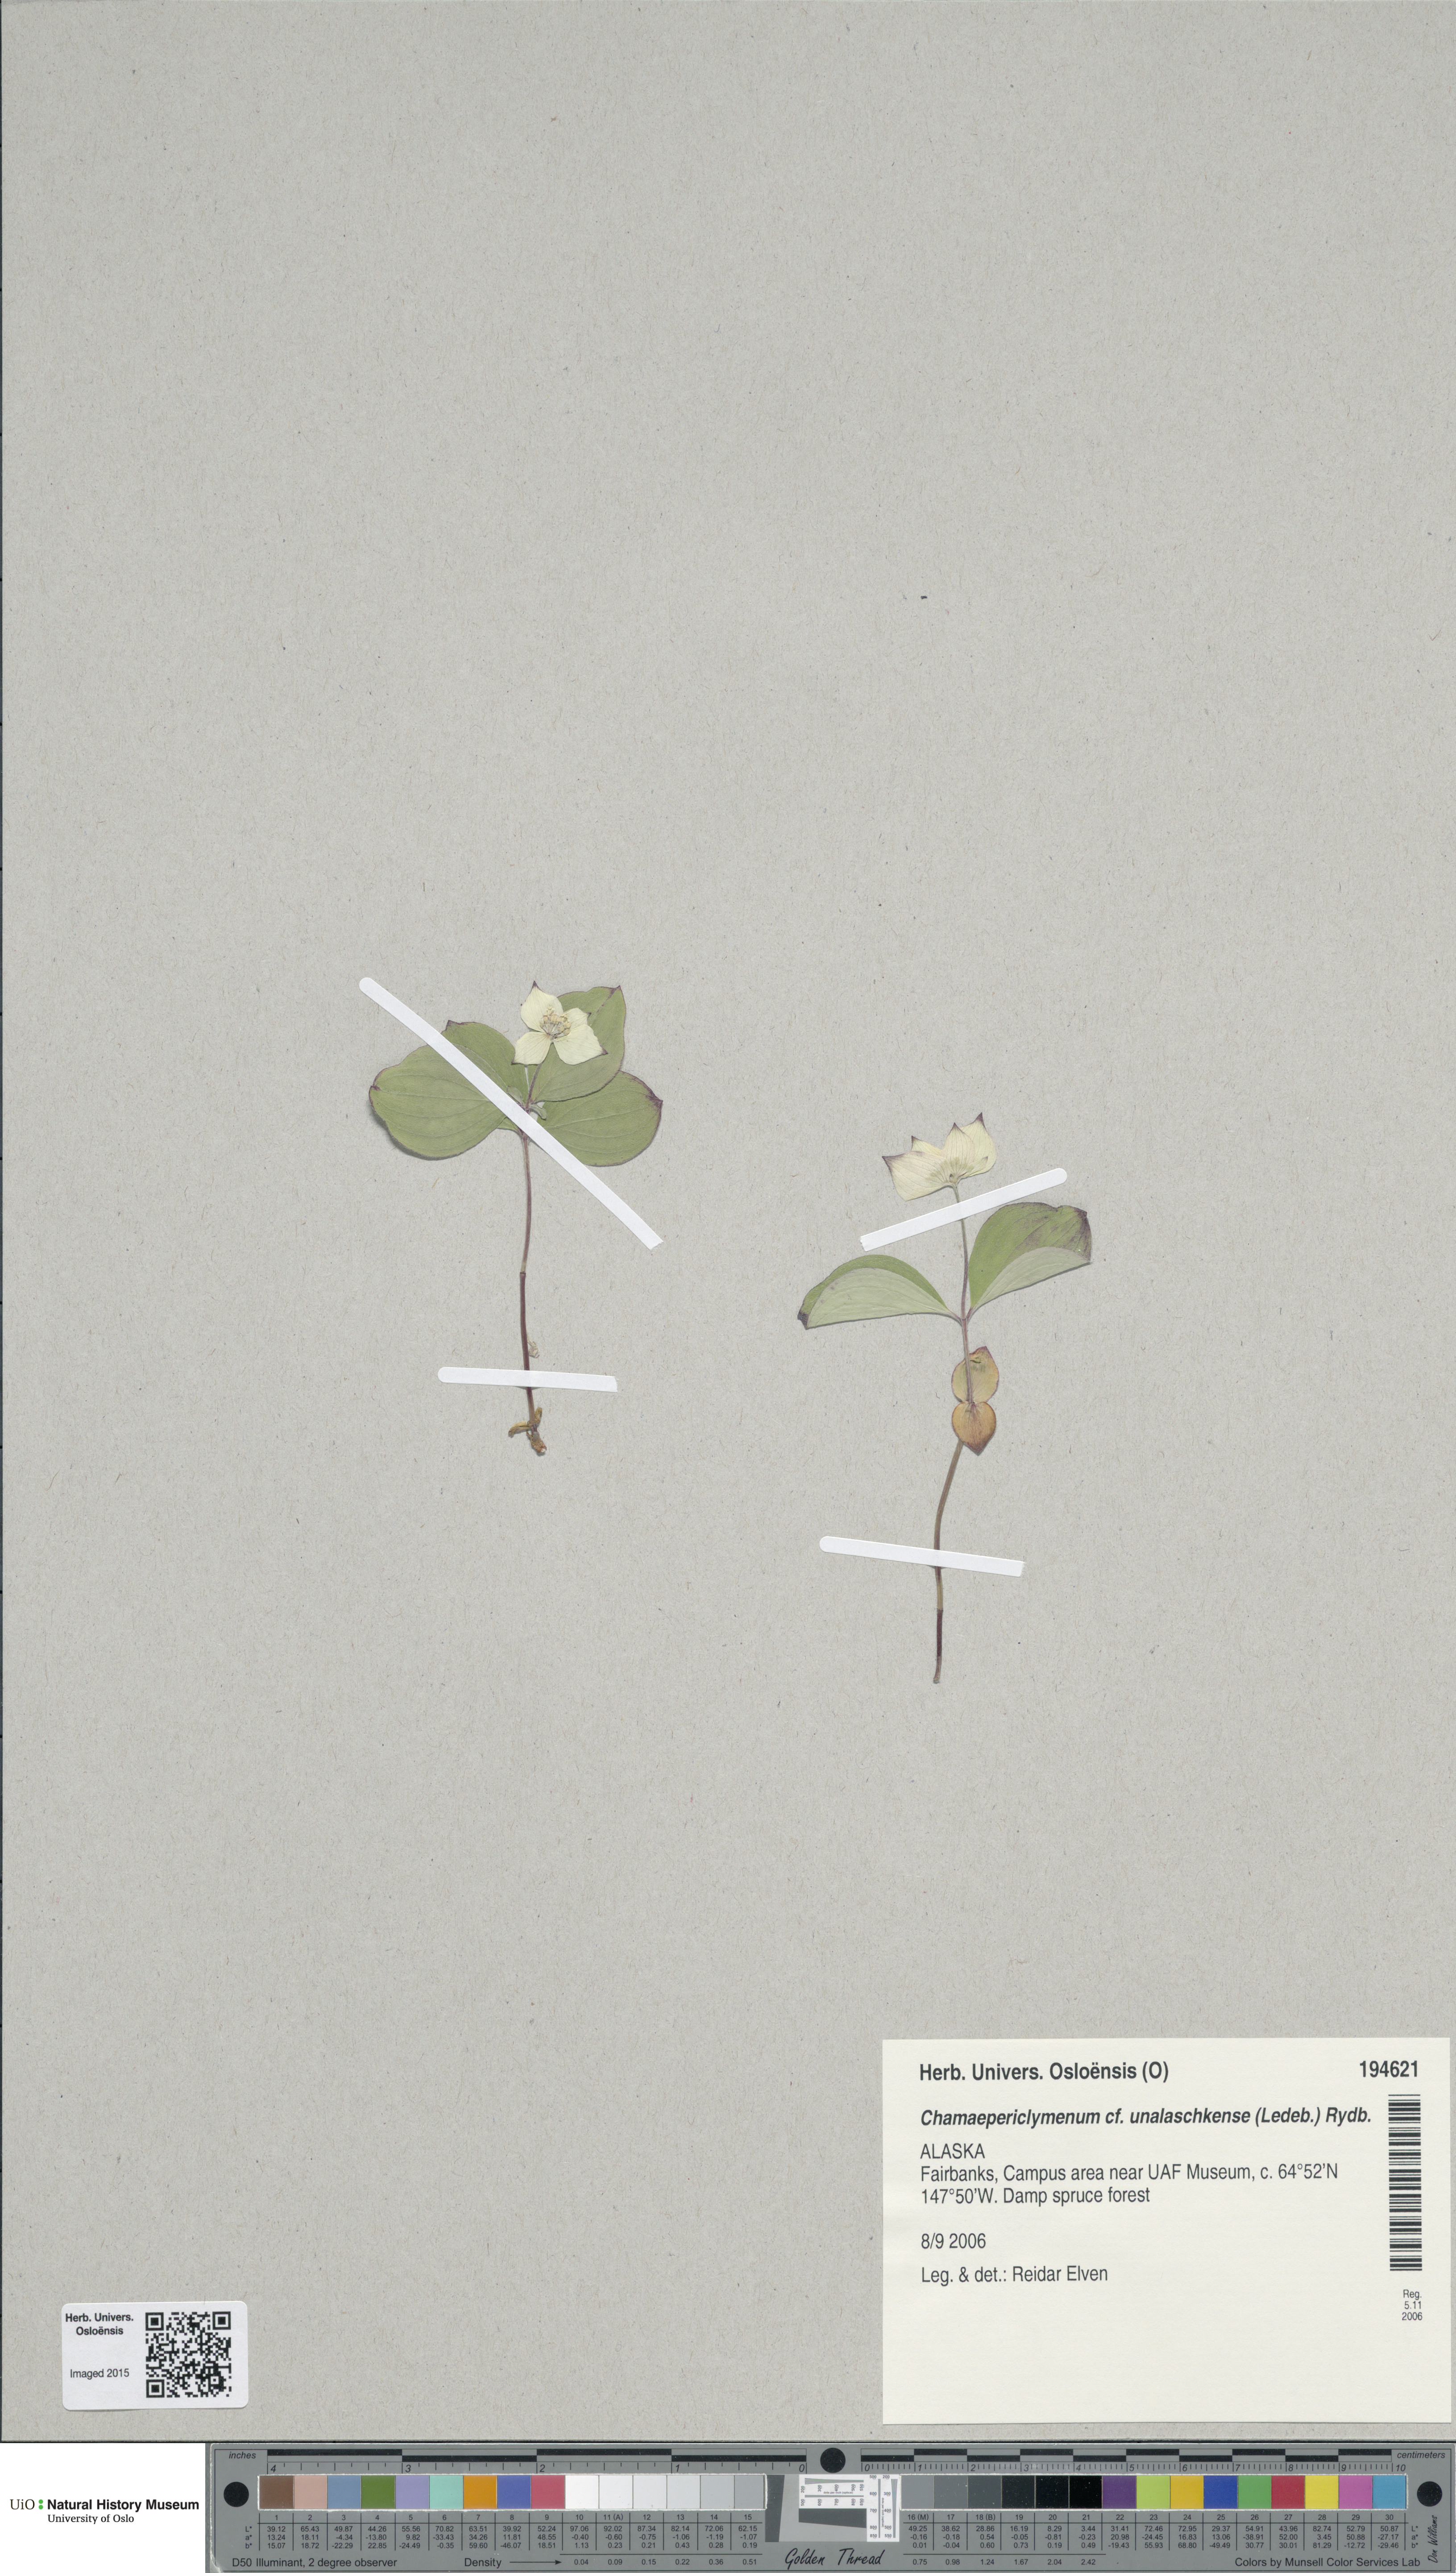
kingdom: Plantae
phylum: Tracheophyta
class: Magnoliopsida
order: Cornales
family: Cornaceae
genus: Cornus
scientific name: Cornus unalaschkensis
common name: Alaska bunchberry
